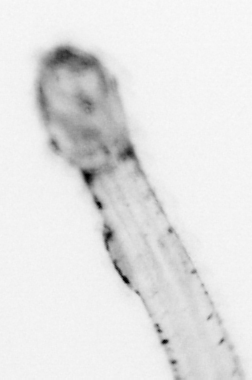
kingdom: Animalia
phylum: Chaetognatha
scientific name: Chaetognatha
